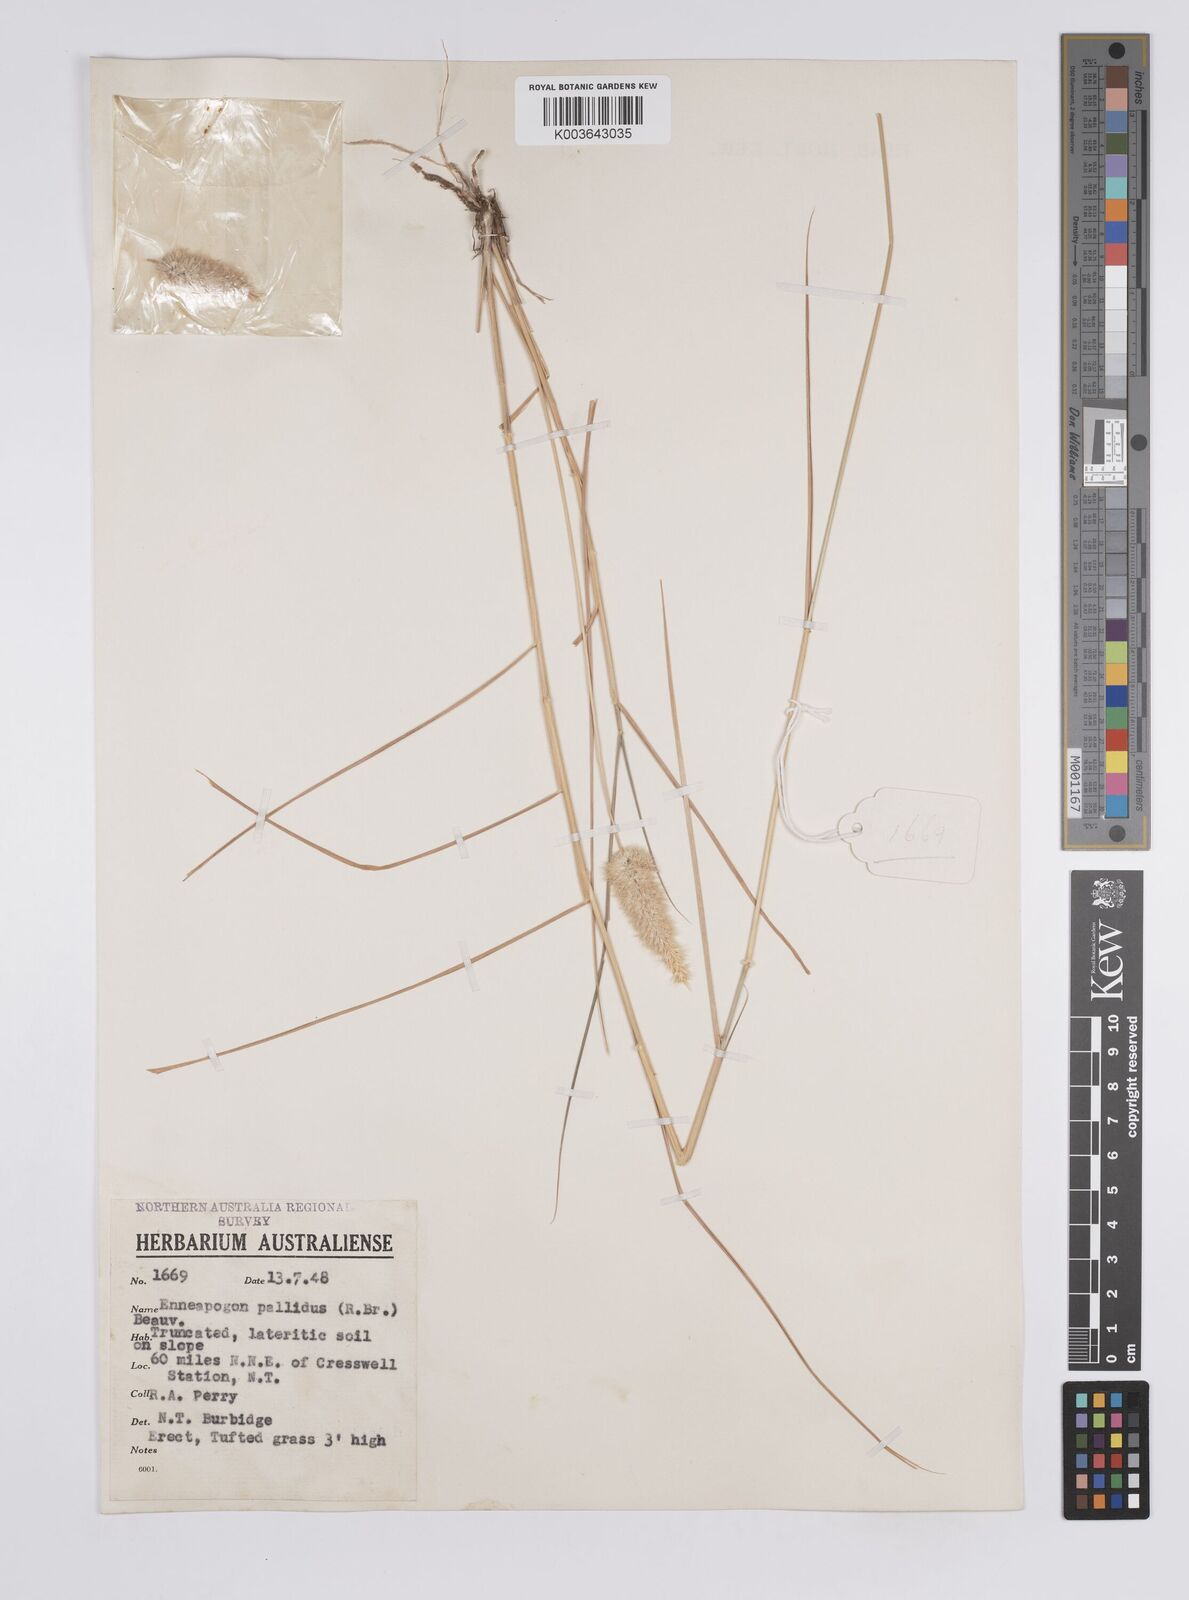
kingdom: Plantae
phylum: Tracheophyta
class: Liliopsida
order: Poales
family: Poaceae
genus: Enneapogon
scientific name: Enneapogon pallidus
